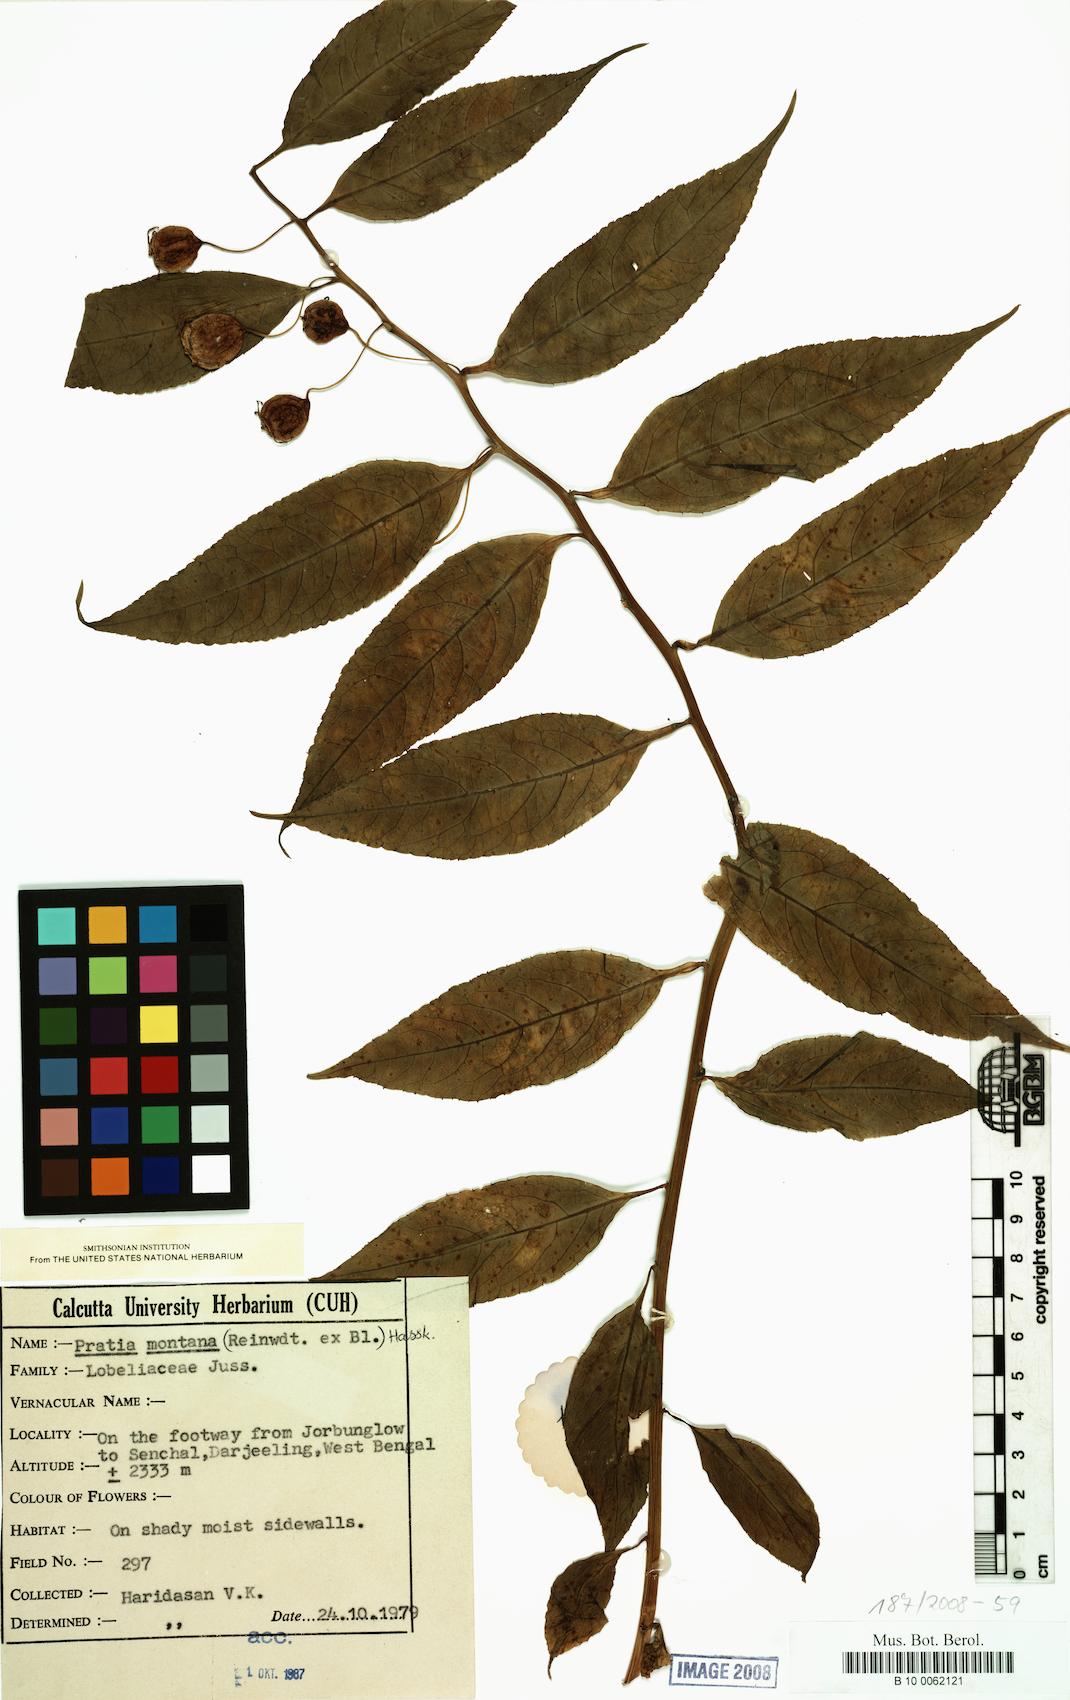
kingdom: Plantae
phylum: Tracheophyta
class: Magnoliopsida
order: Asterales
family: Campanulaceae
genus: Lobelia
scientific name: Lobelia deleiensis
